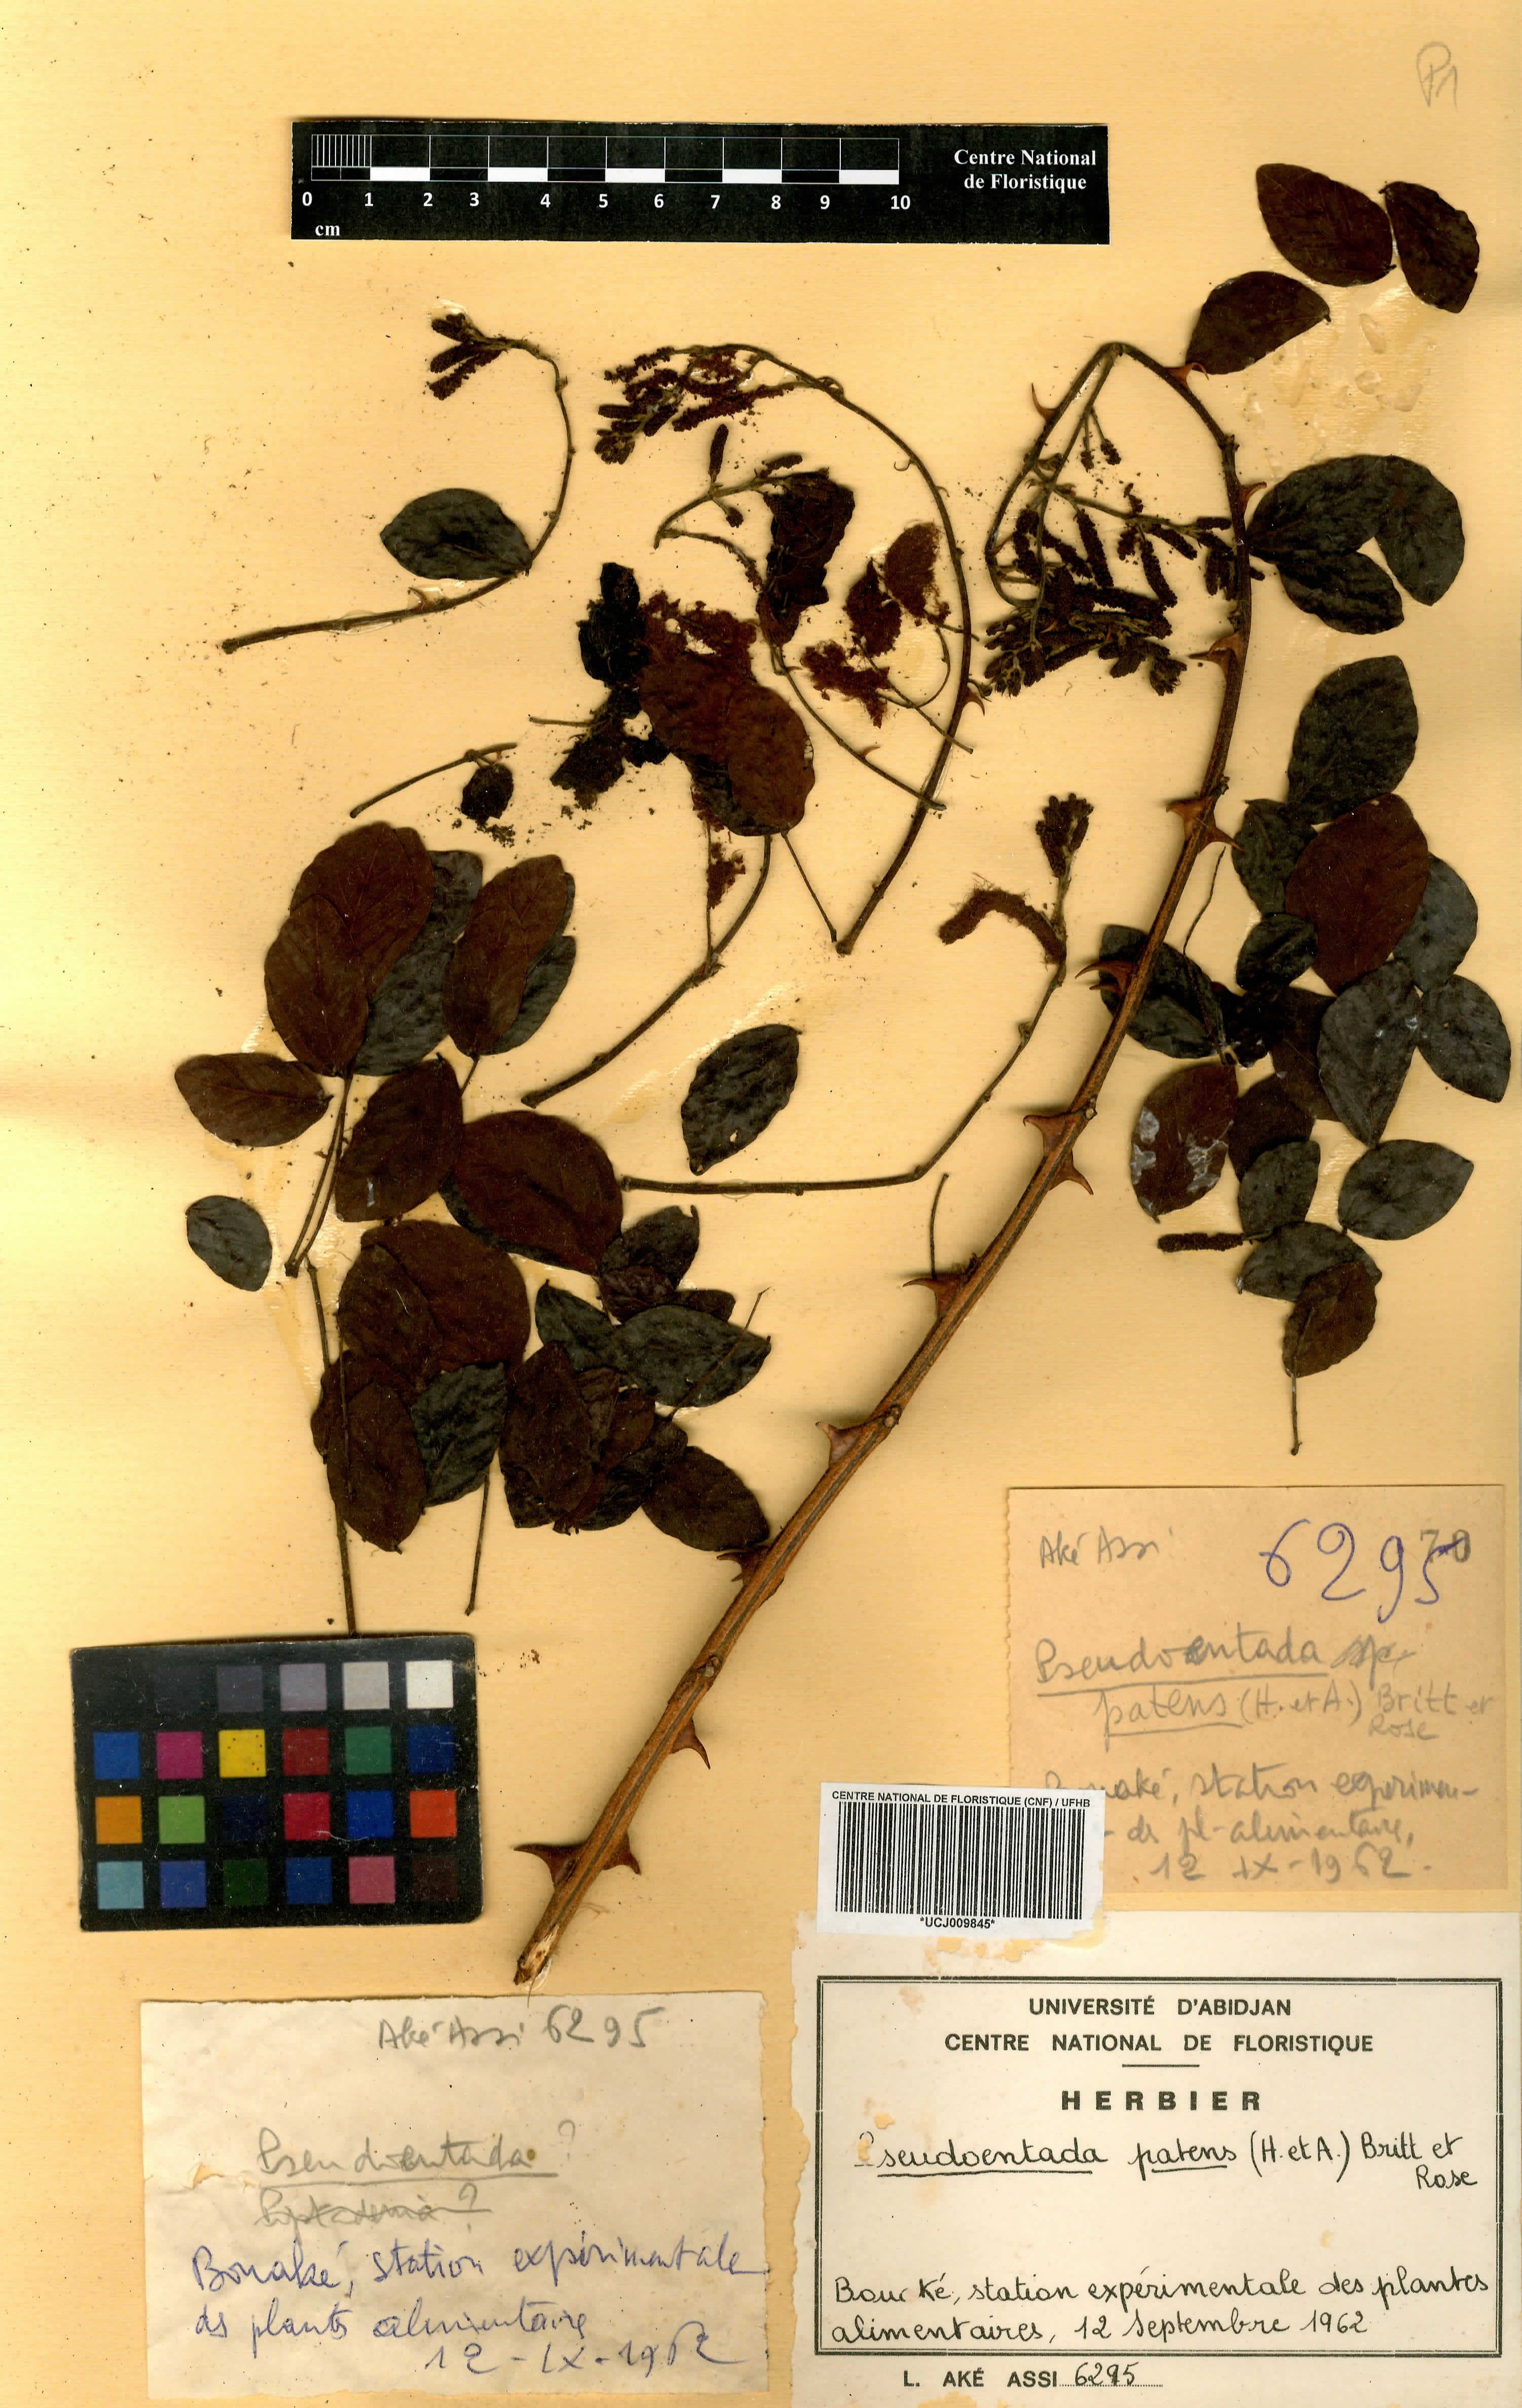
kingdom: Plantae
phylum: Tracheophyta
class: Magnoliopsida
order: Fabales
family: Fabaceae
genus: Adenopodia
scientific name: Adenopodia patens
